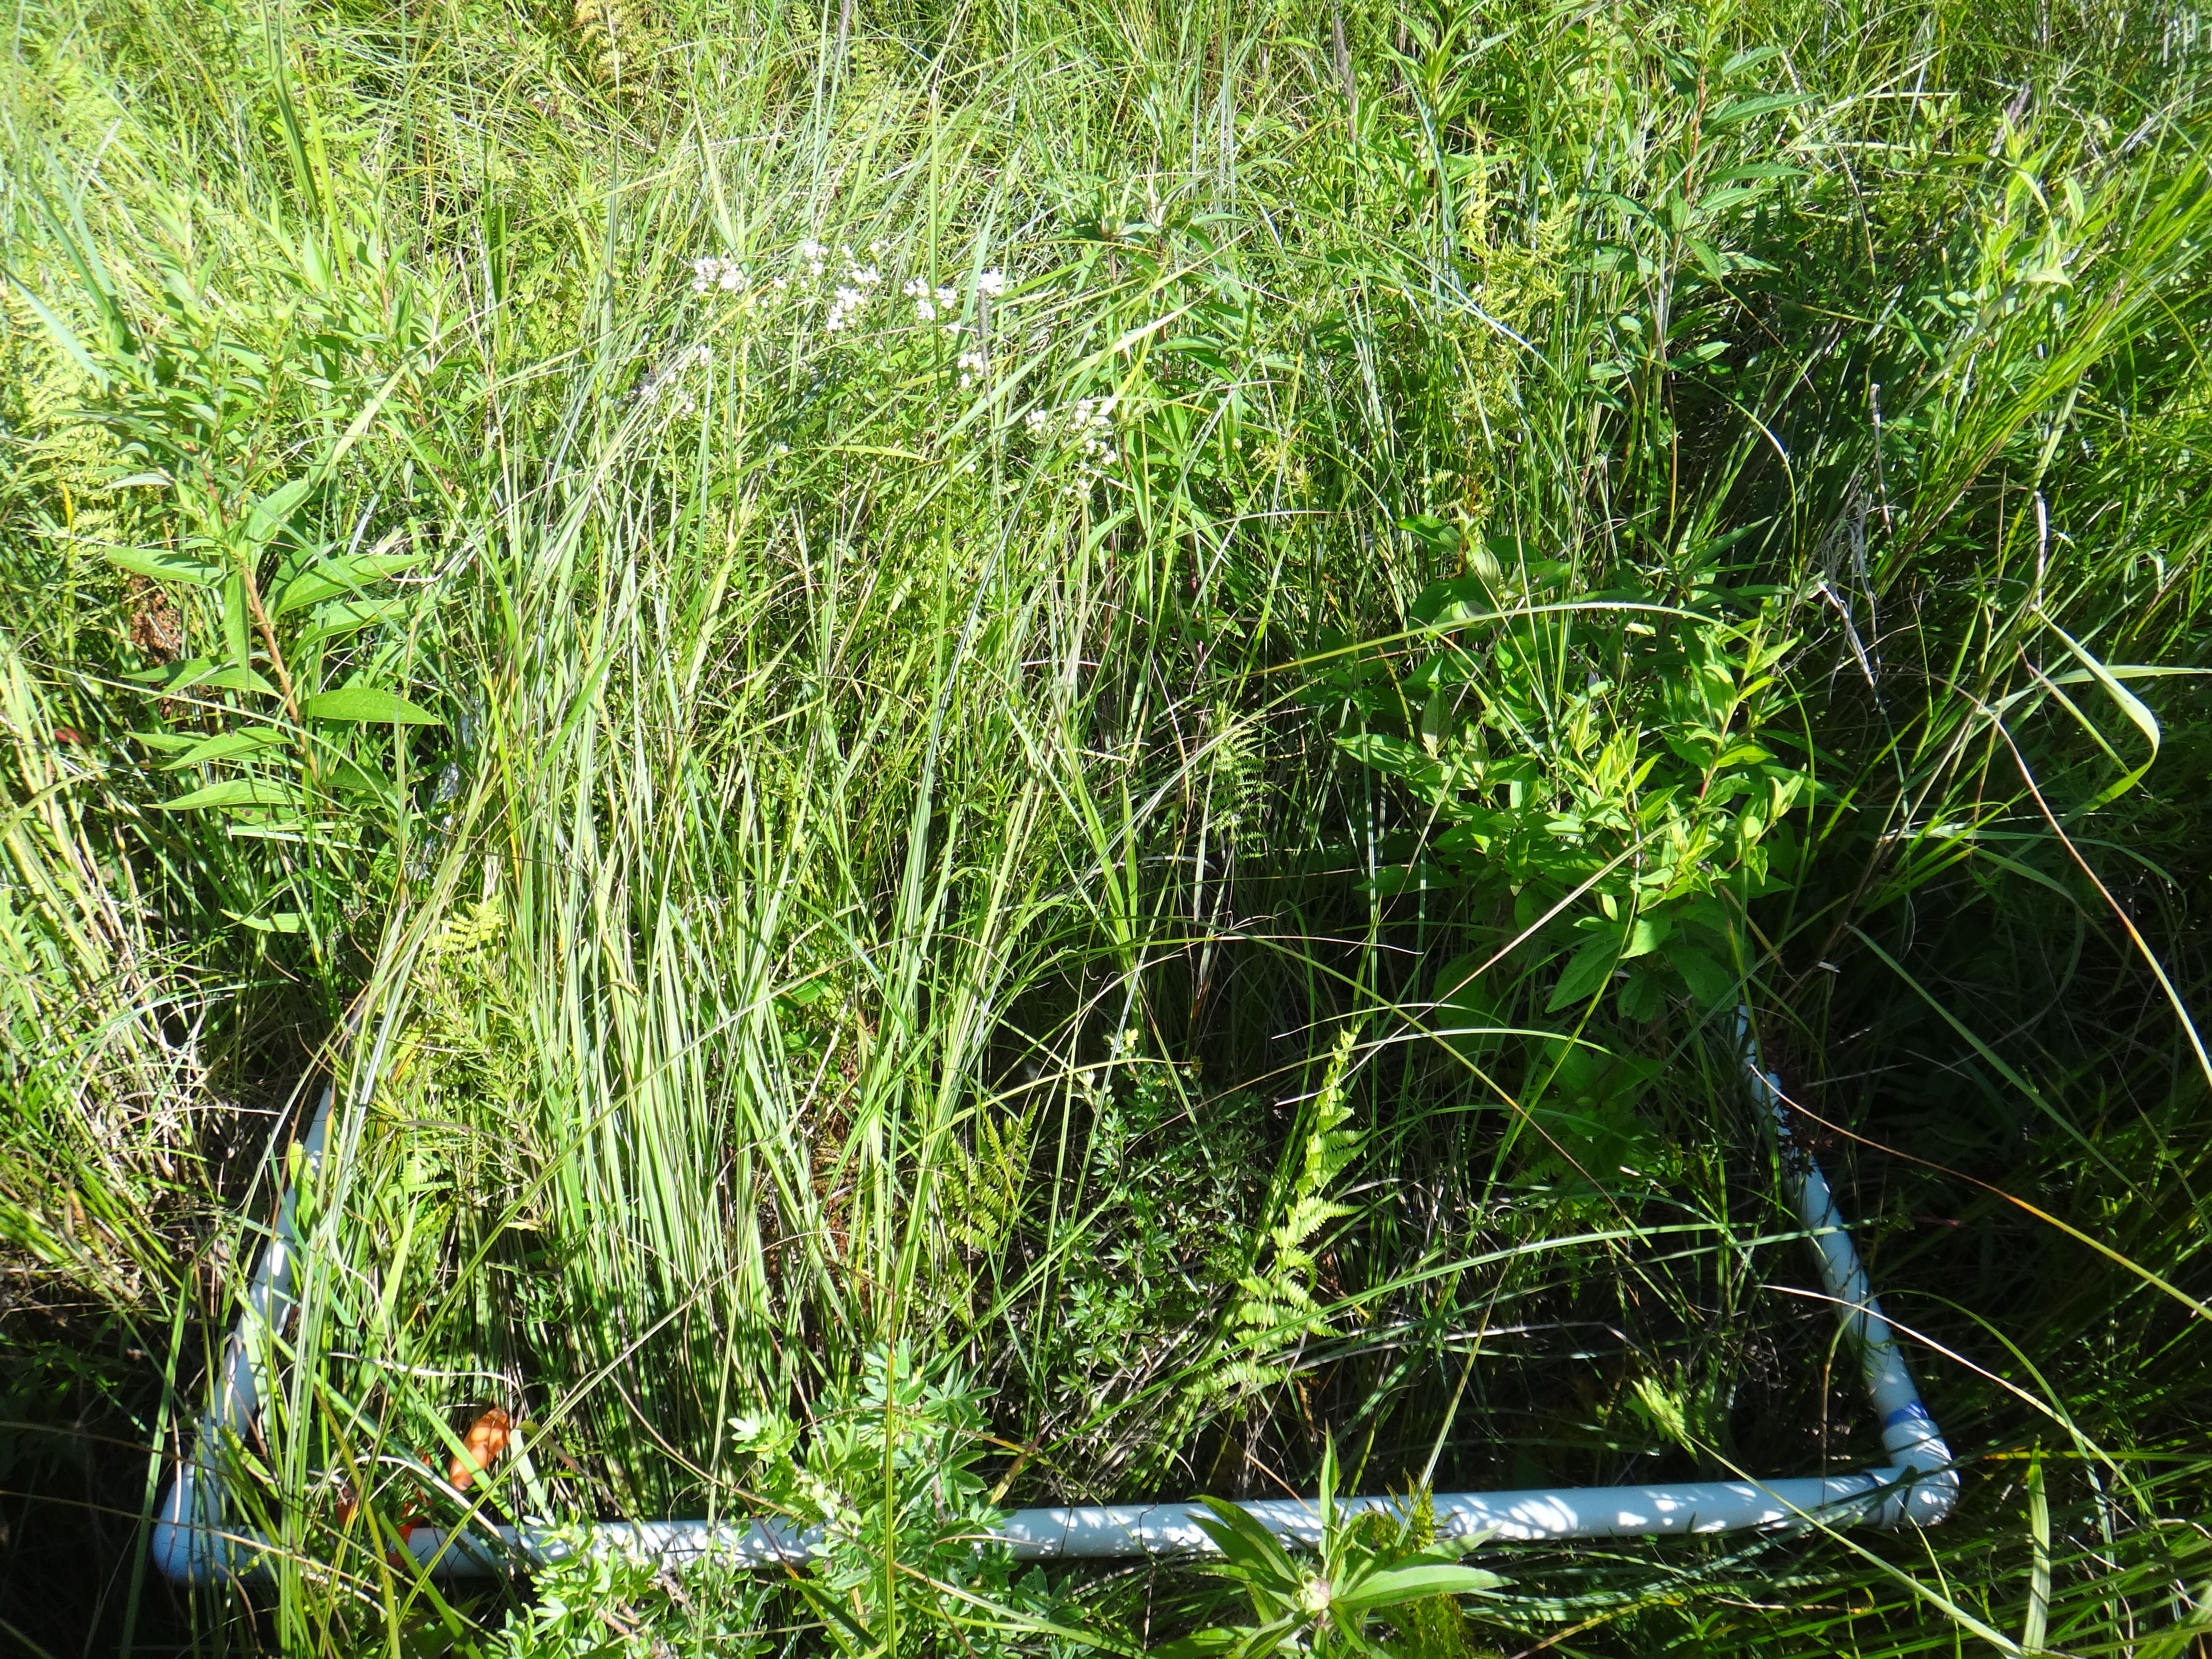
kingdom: Plantae
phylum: Tracheophyta
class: Liliopsida
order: Poales
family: Typhaceae
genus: Typha
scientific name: Typha latifolia
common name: Broadleaf cattail
